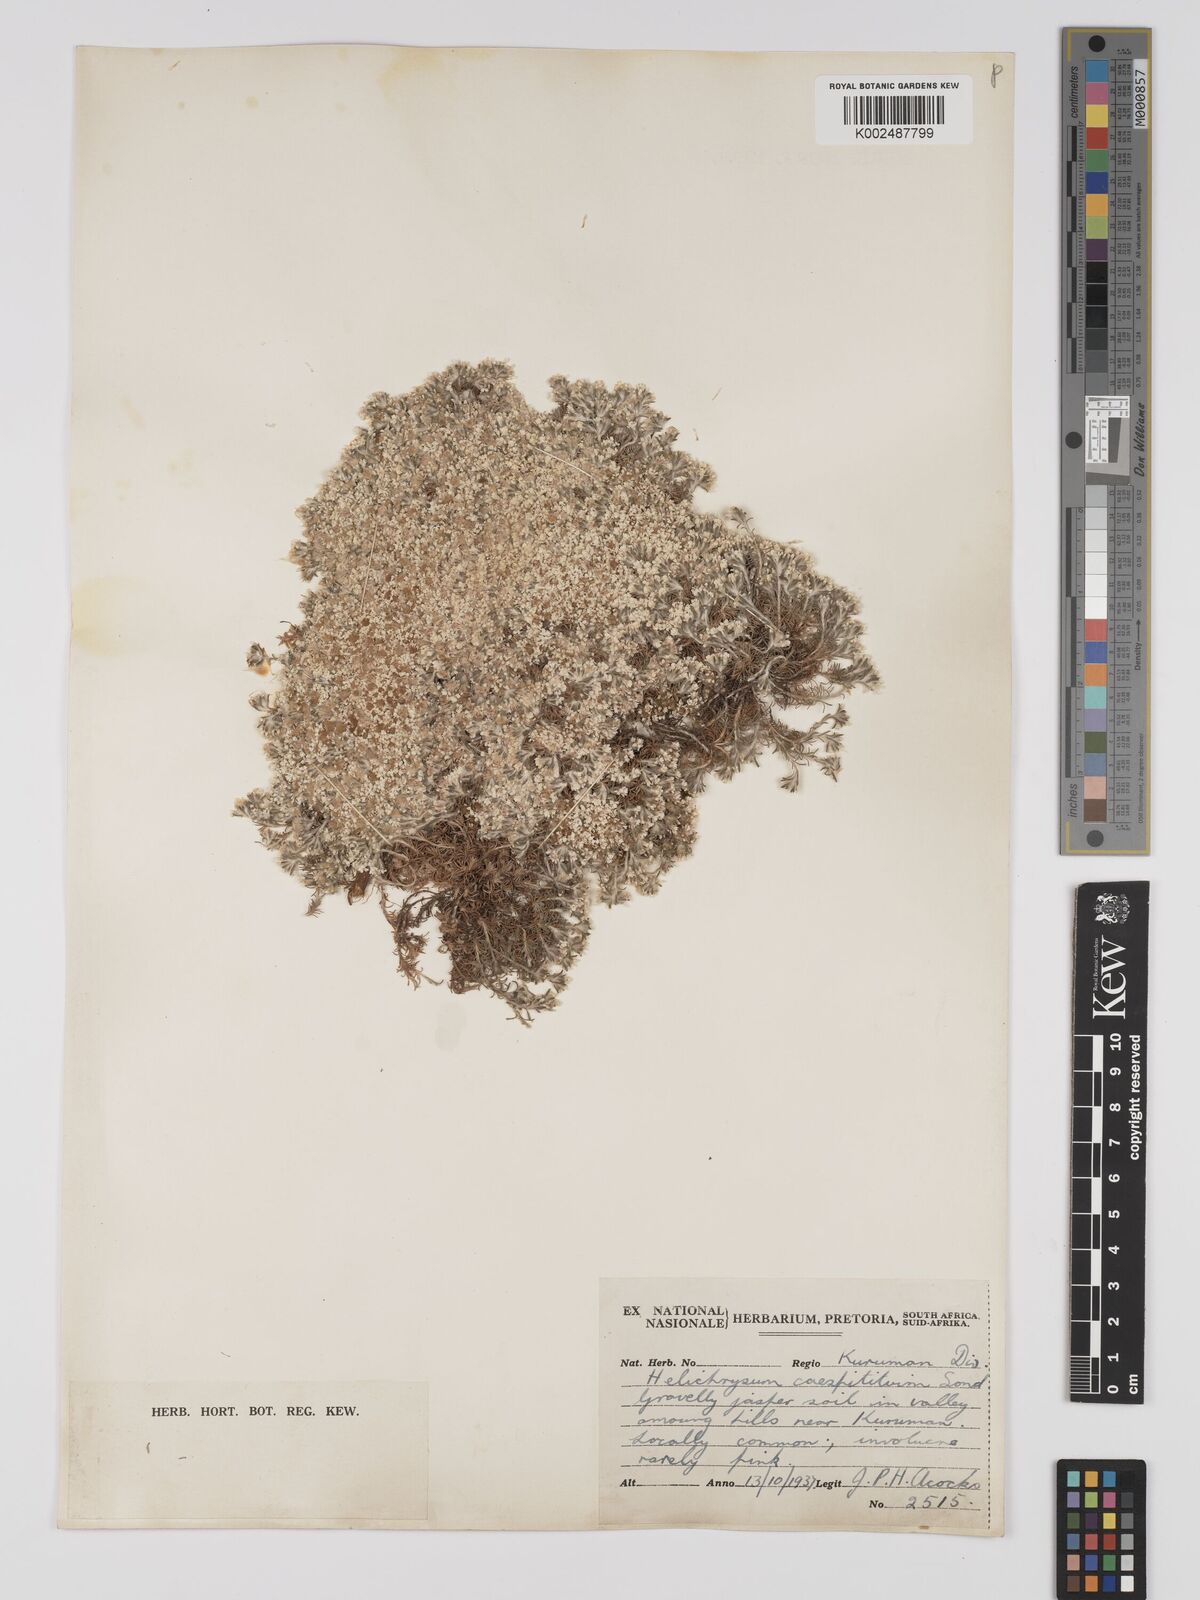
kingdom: Plantae
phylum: Tracheophyta
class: Magnoliopsida
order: Asterales
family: Asteraceae
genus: Helichrysum
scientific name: Helichrysum caespititium
